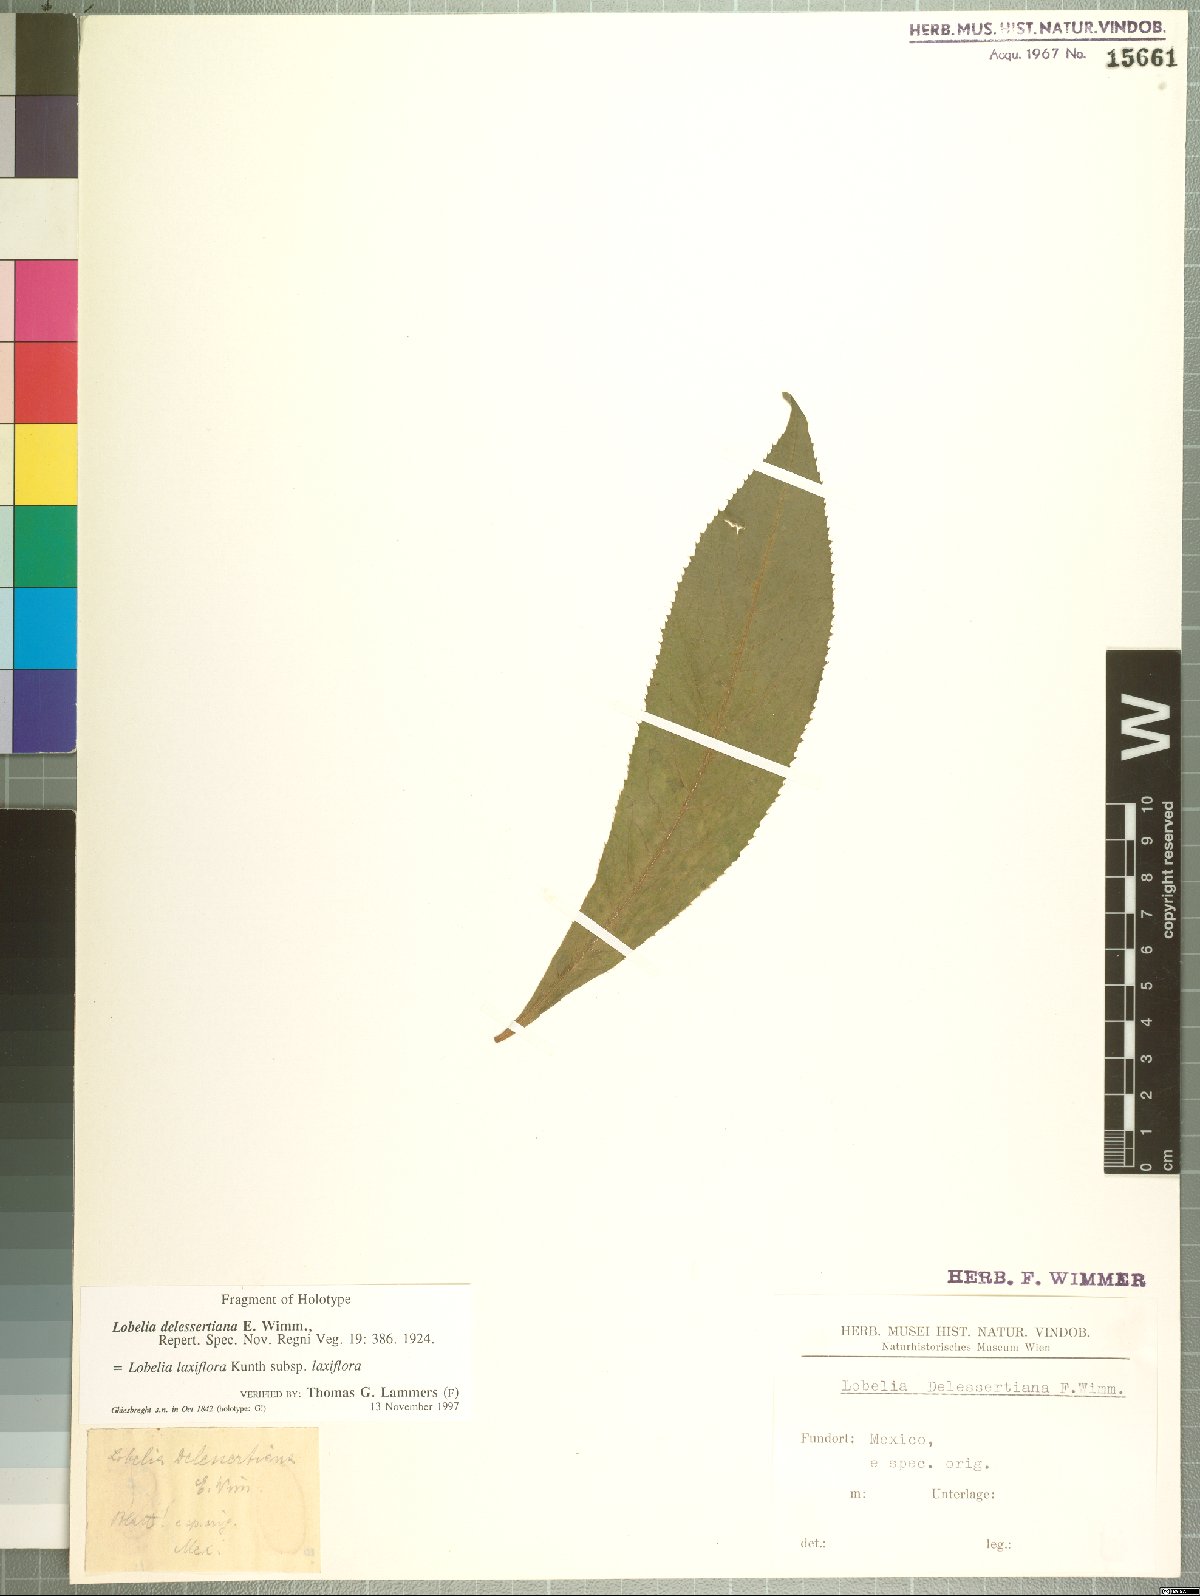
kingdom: Plantae
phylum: Tracheophyta
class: Magnoliopsida
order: Asterales
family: Campanulaceae
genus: Lobelia
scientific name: Lobelia laxiflora
